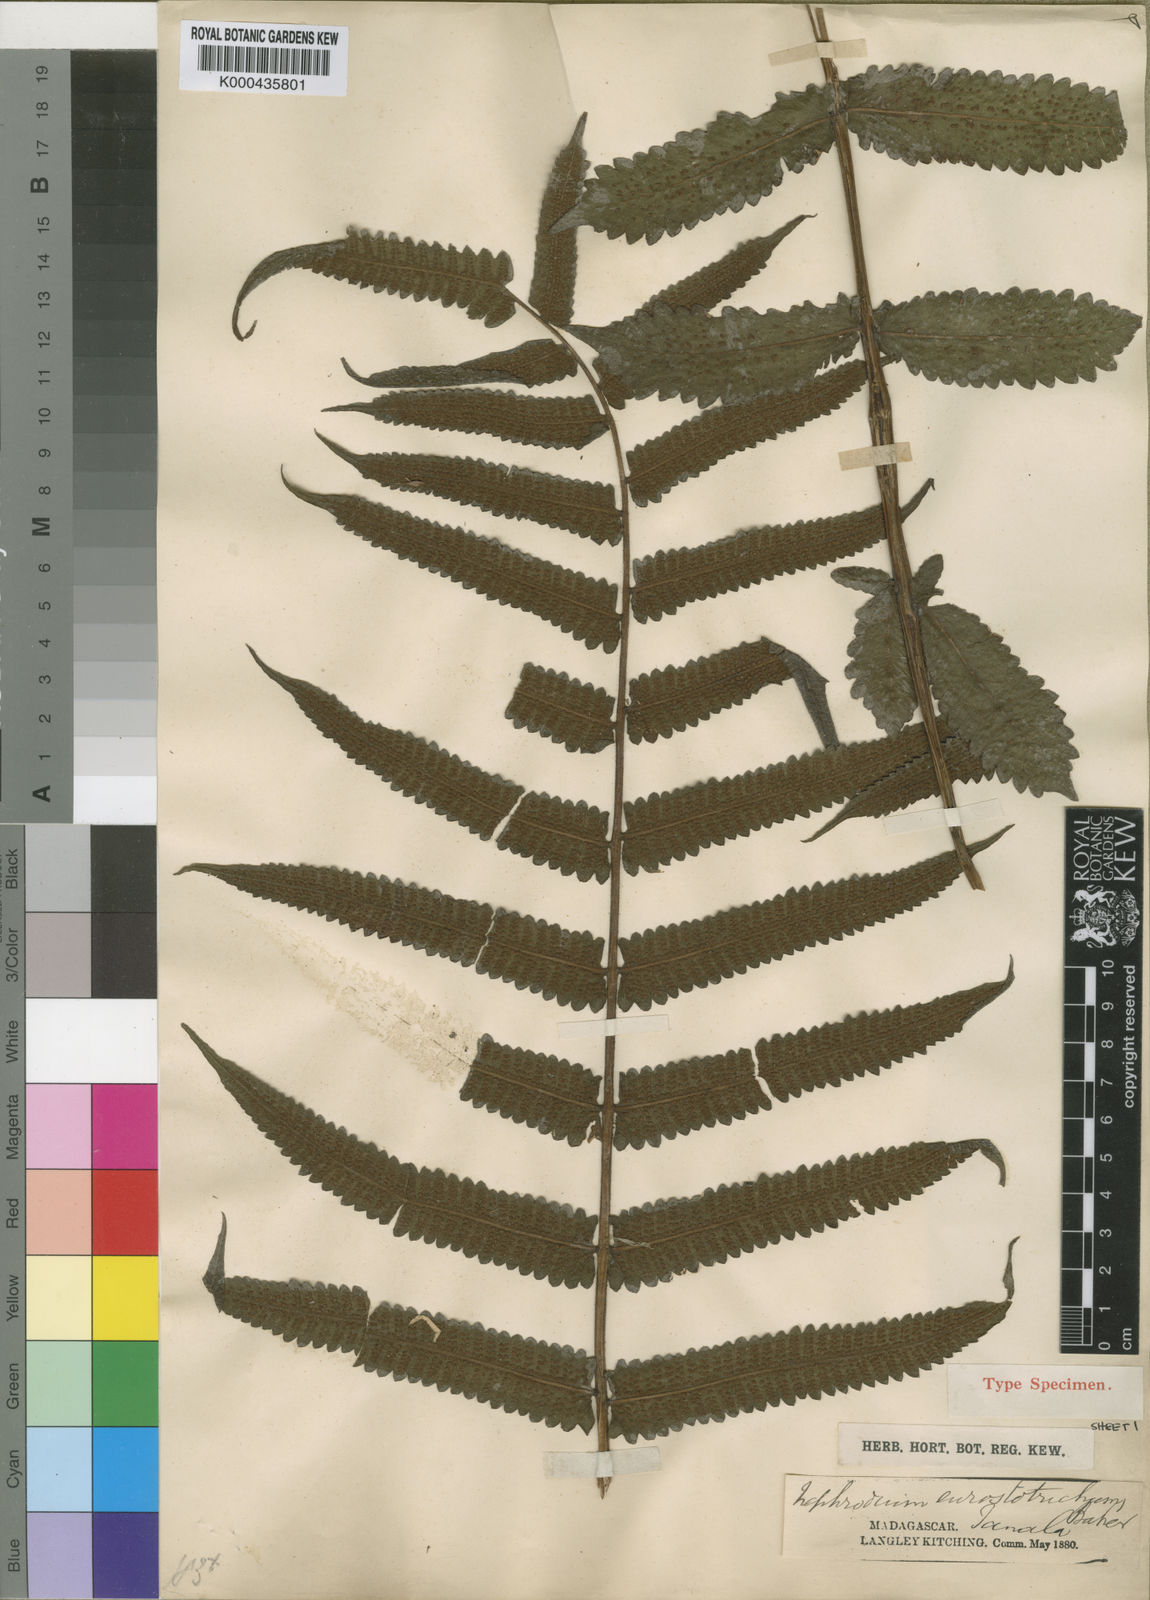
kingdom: Plantae
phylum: Tracheophyta
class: Polypodiopsida
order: Polypodiales
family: Thelypteridaceae
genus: Christella
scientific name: Christella distans
